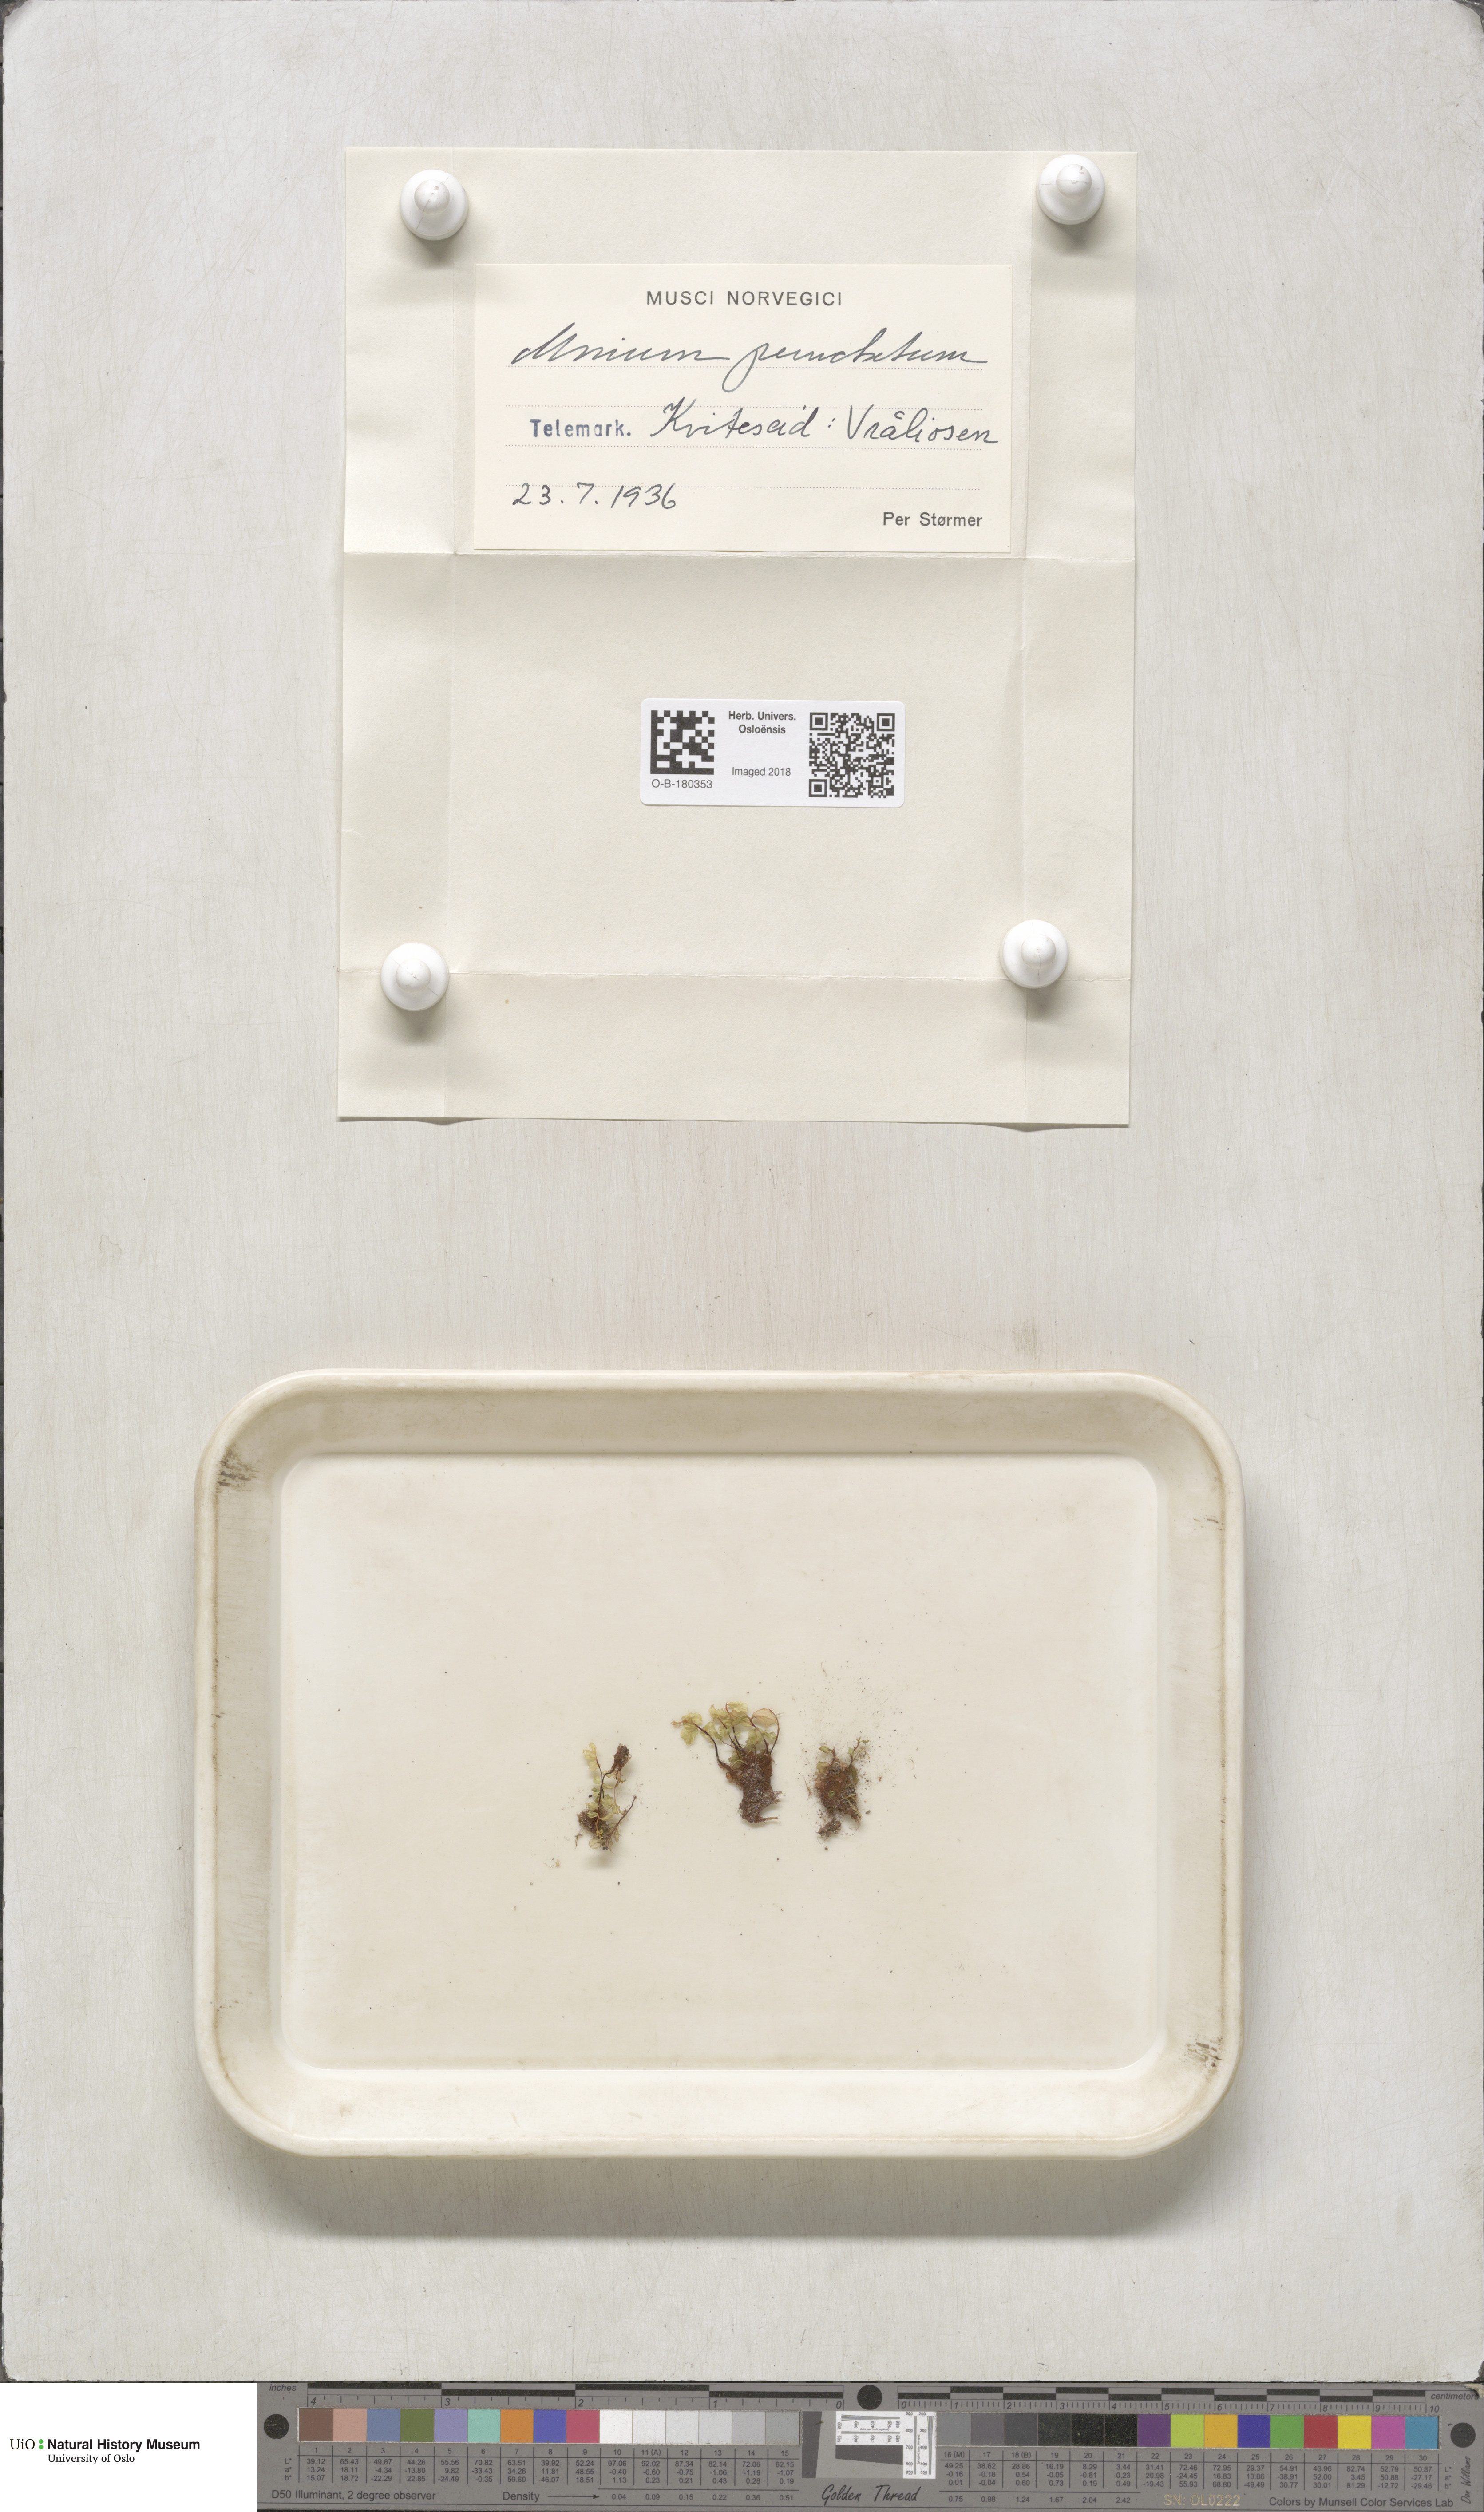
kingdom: Plantae
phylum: Bryophyta
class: Bryopsida
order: Bryales
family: Mniaceae
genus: Rhizomnium
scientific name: Rhizomnium punctatum
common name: Dotted leafy moss
